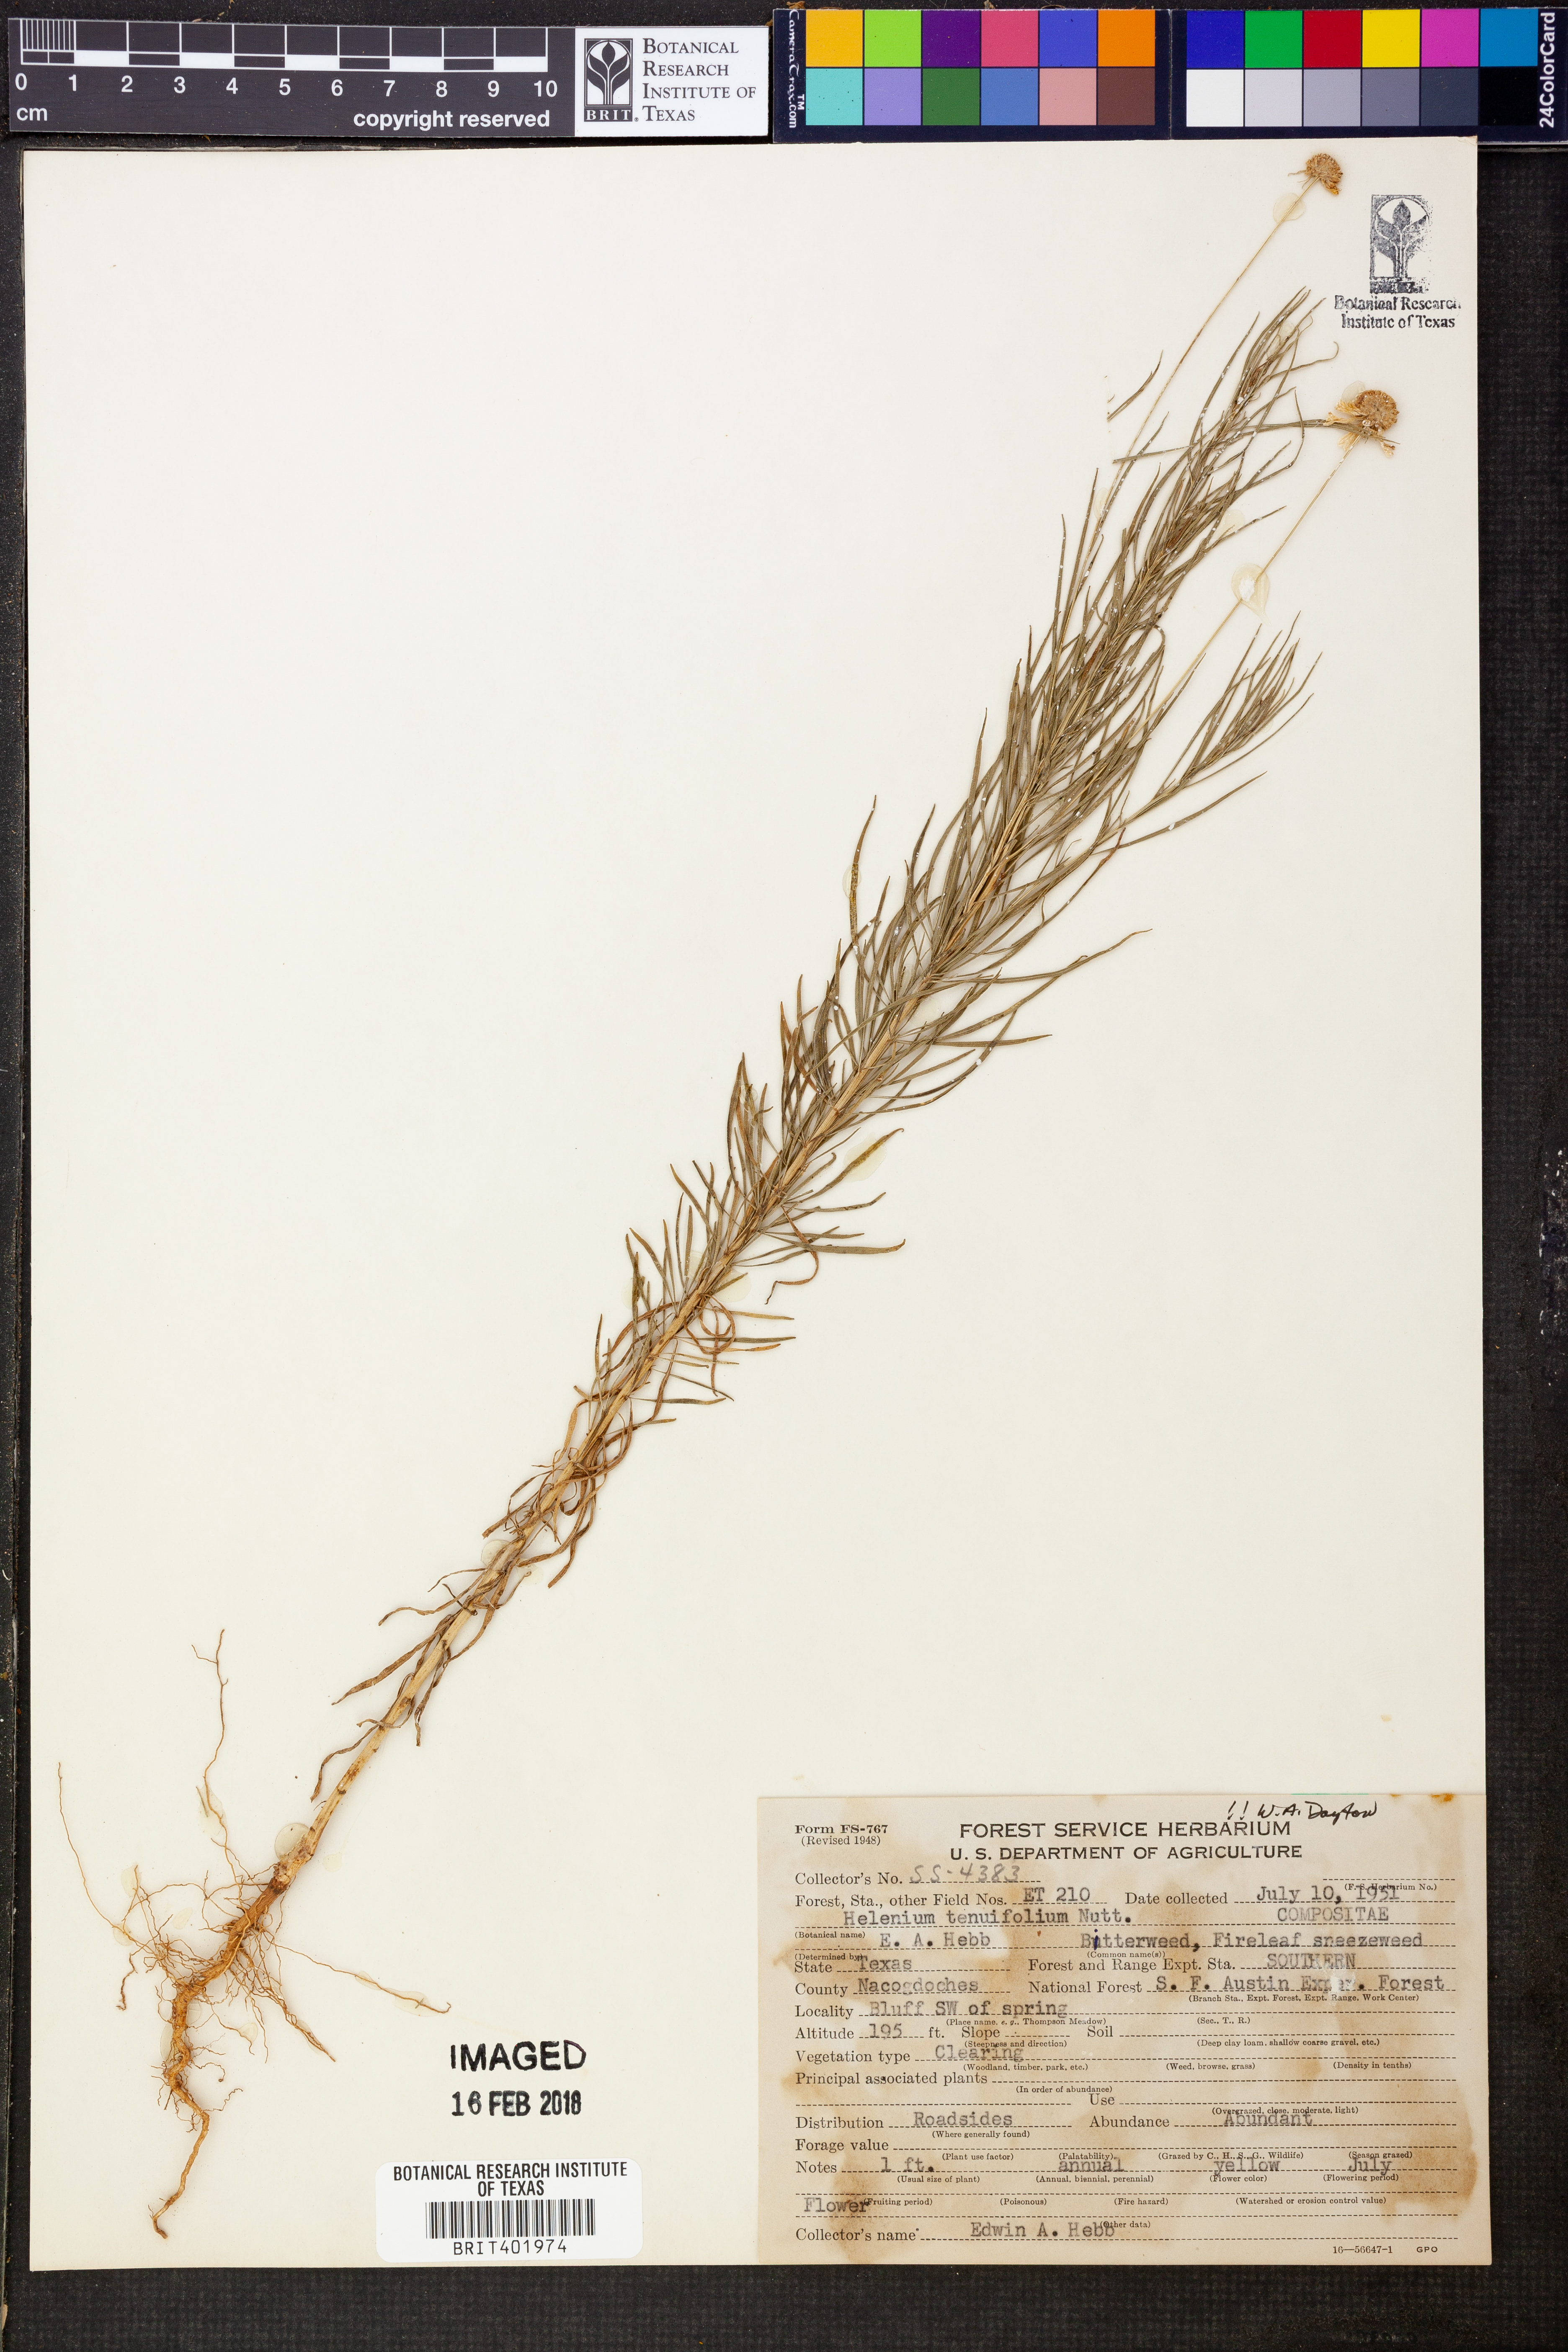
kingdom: Plantae
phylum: Tracheophyta
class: Magnoliopsida
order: Asterales
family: Asteraceae
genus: Helenium
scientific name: Helenium amarum
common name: Bitter sneezeweed
